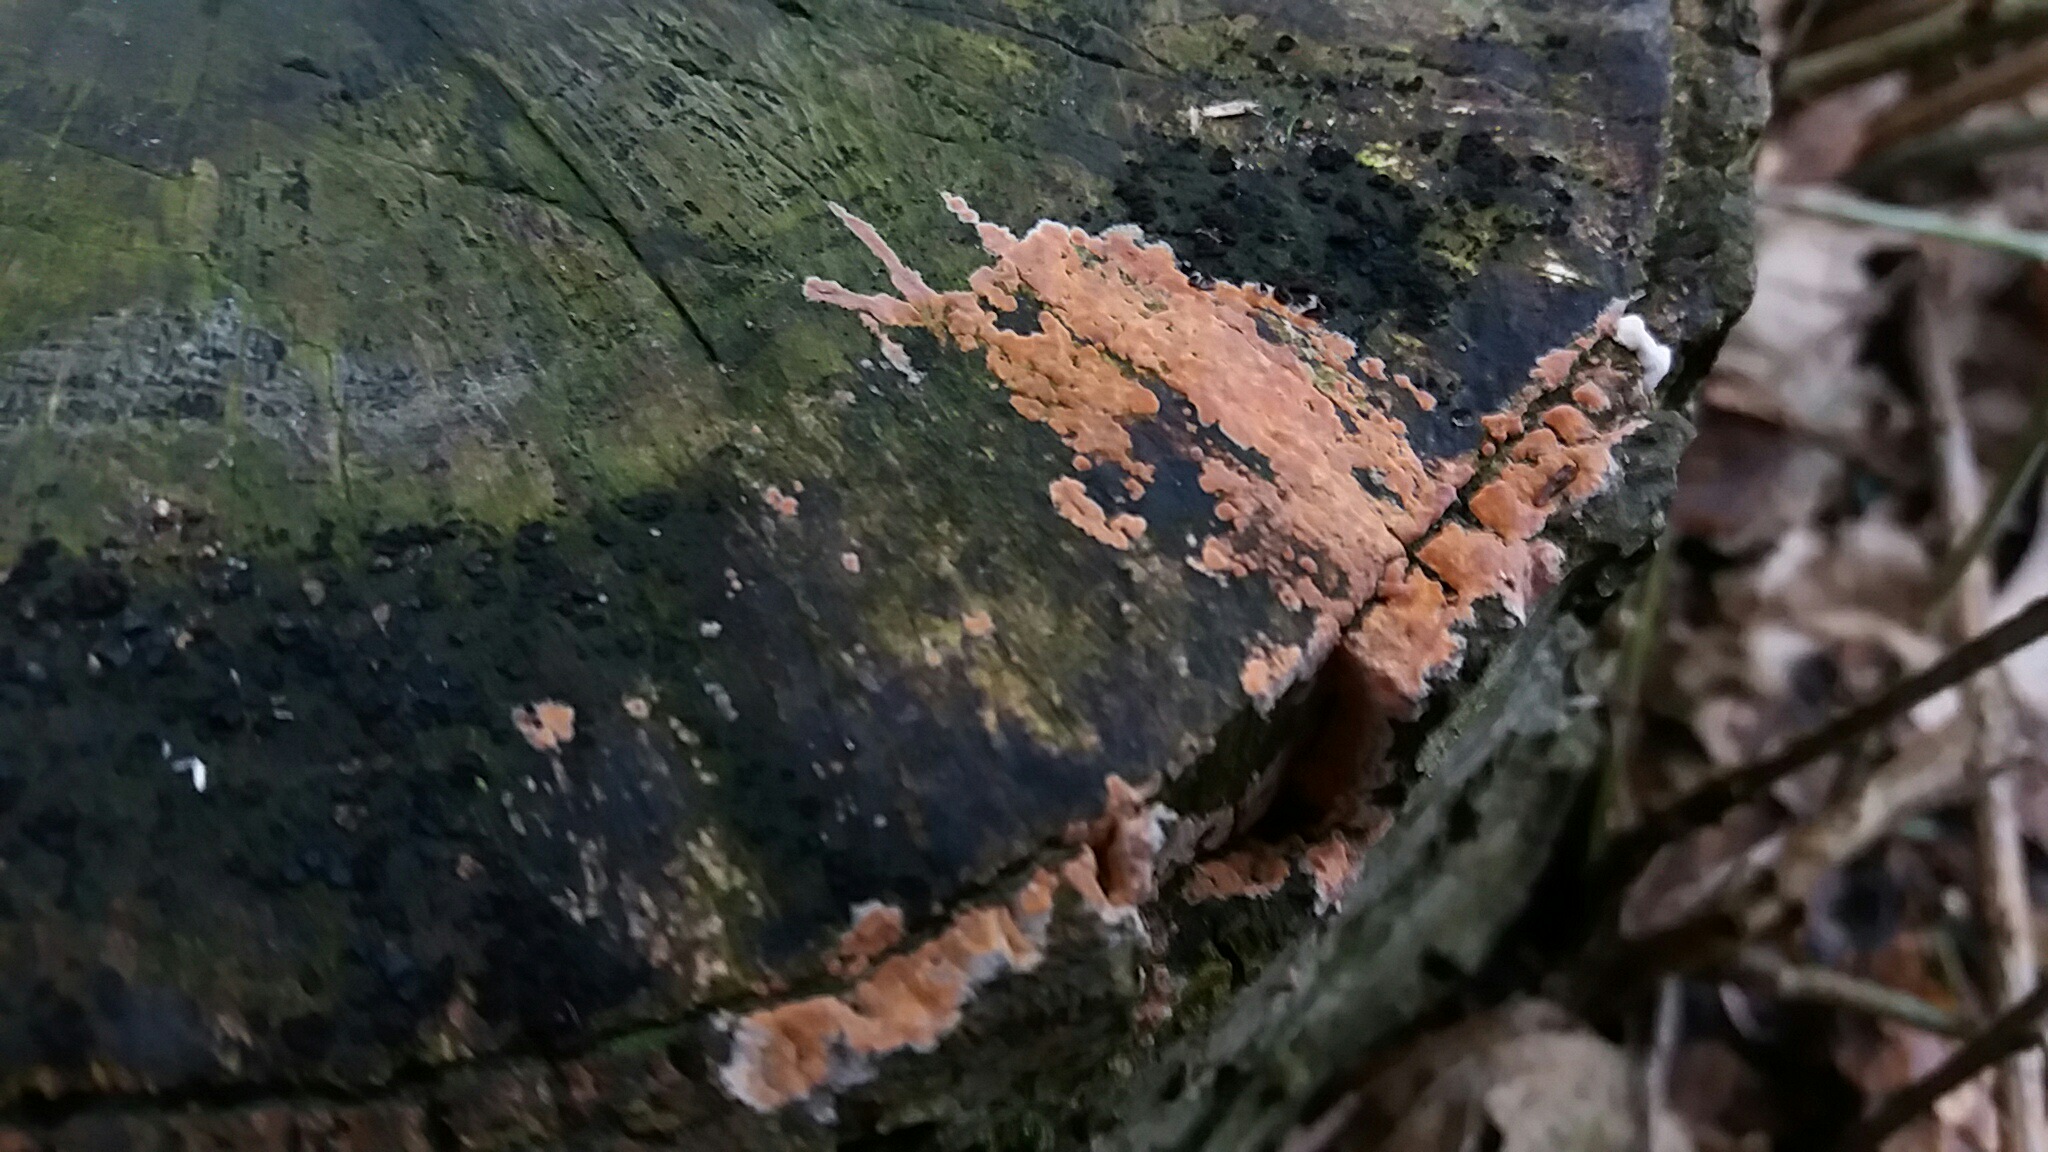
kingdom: Fungi
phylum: Basidiomycota
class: Agaricomycetes
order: Russulales
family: Peniophoraceae
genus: Peniophora
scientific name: Peniophora incarnata
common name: laksefarvet voksskind
